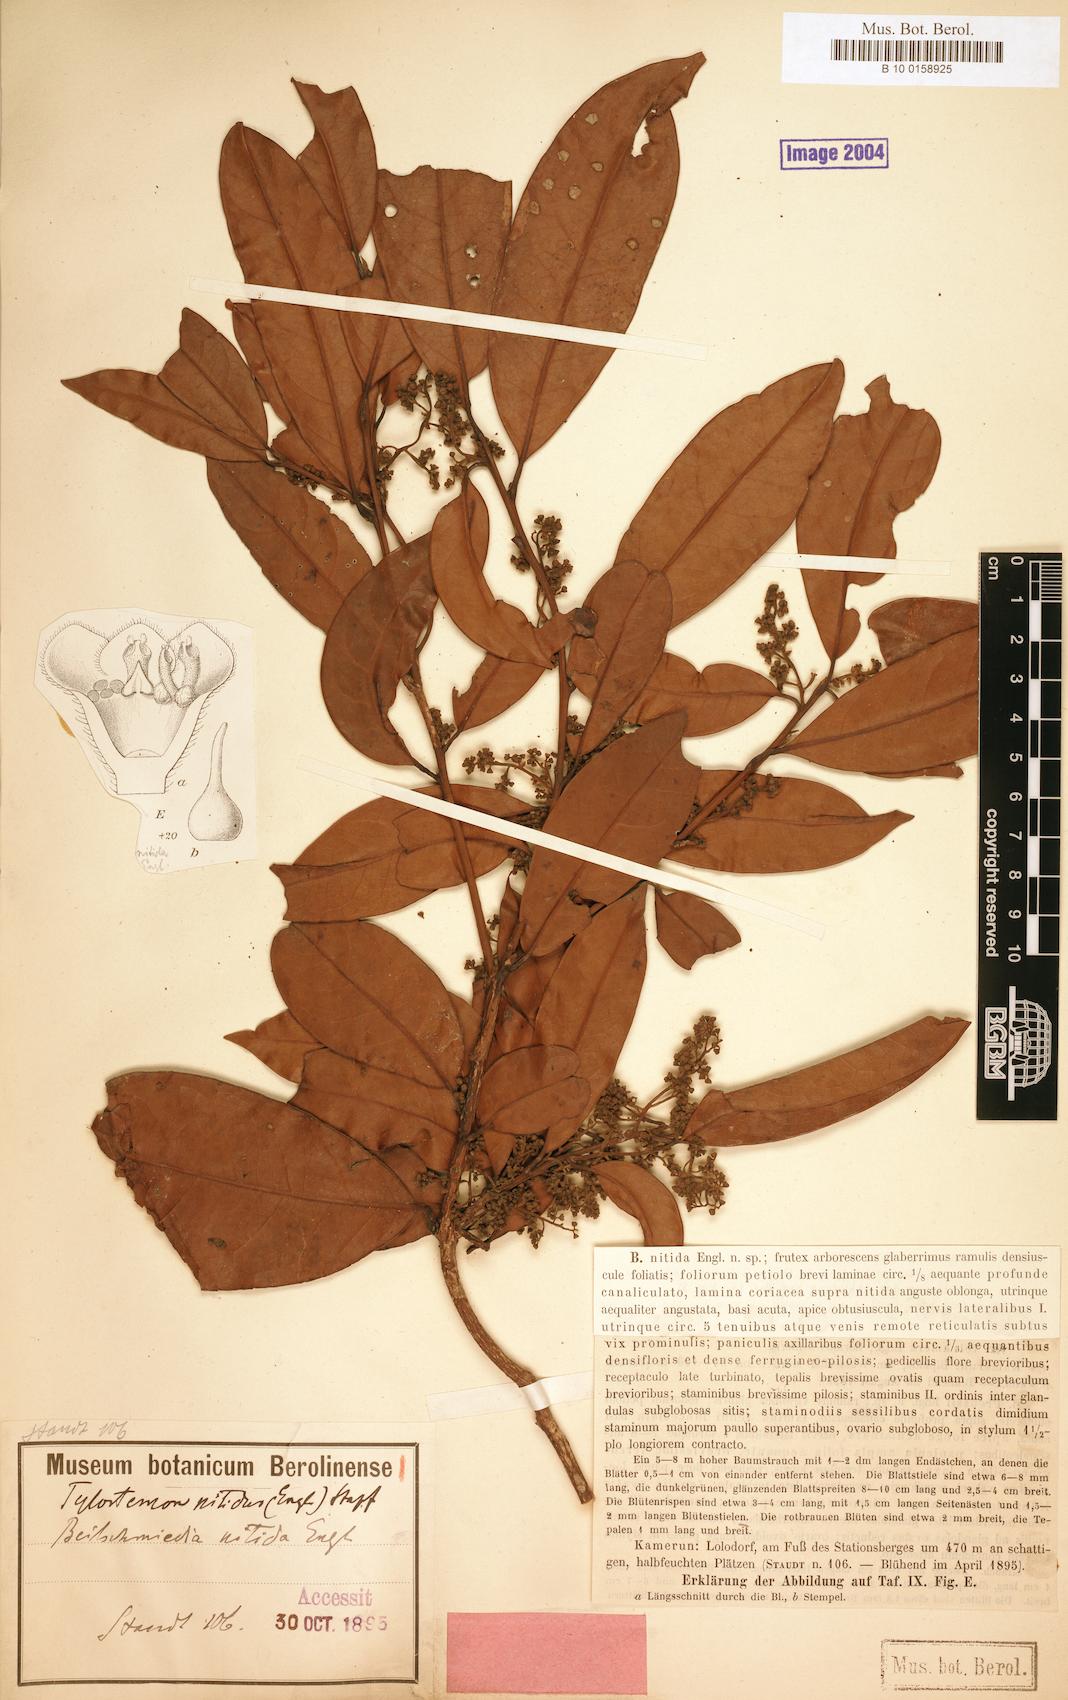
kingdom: Plantae
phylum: Tracheophyta
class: Magnoliopsida
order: Laurales
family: Lauraceae
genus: Beilschmiedia
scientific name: Beilschmiedia nitida
